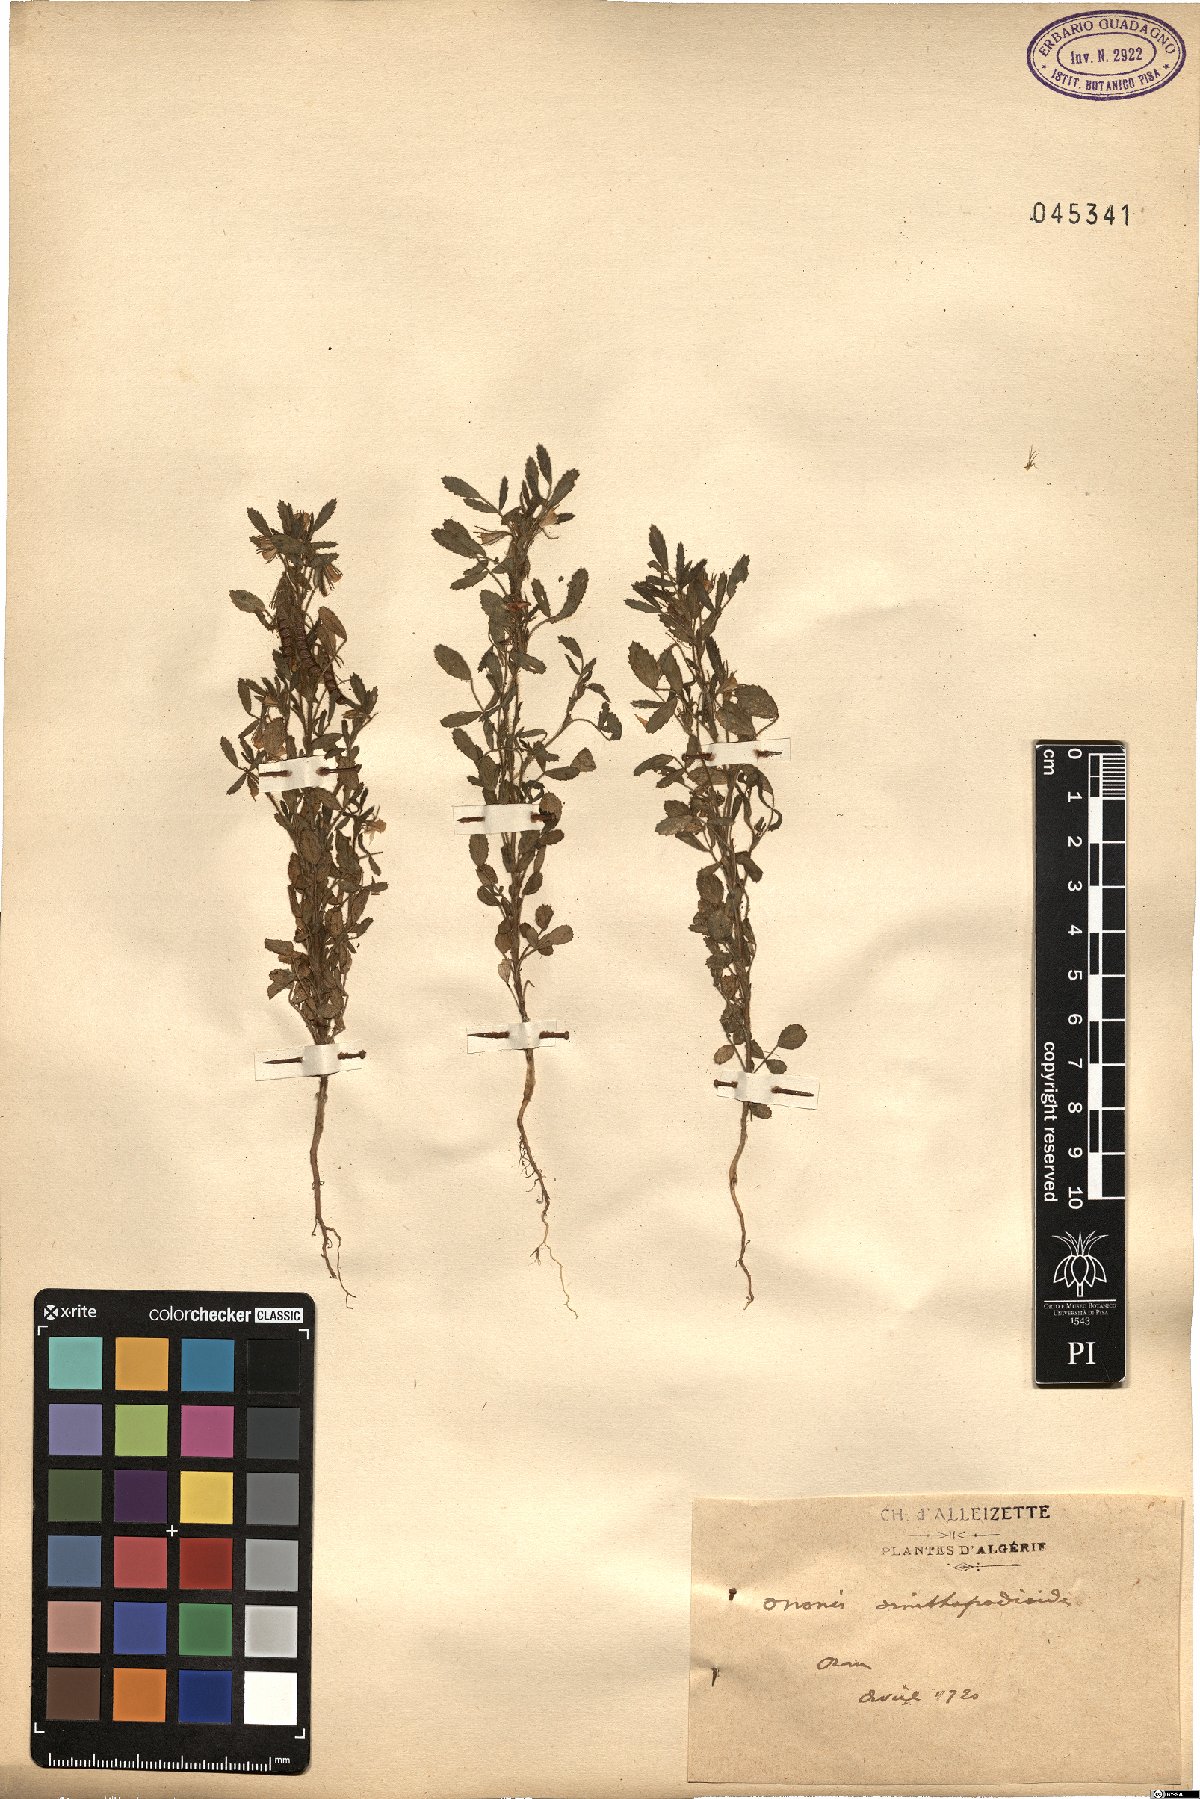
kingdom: Plantae
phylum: Tracheophyta
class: Magnoliopsida
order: Fabales
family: Fabaceae
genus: Ononis
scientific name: Ononis ornithopodioides
